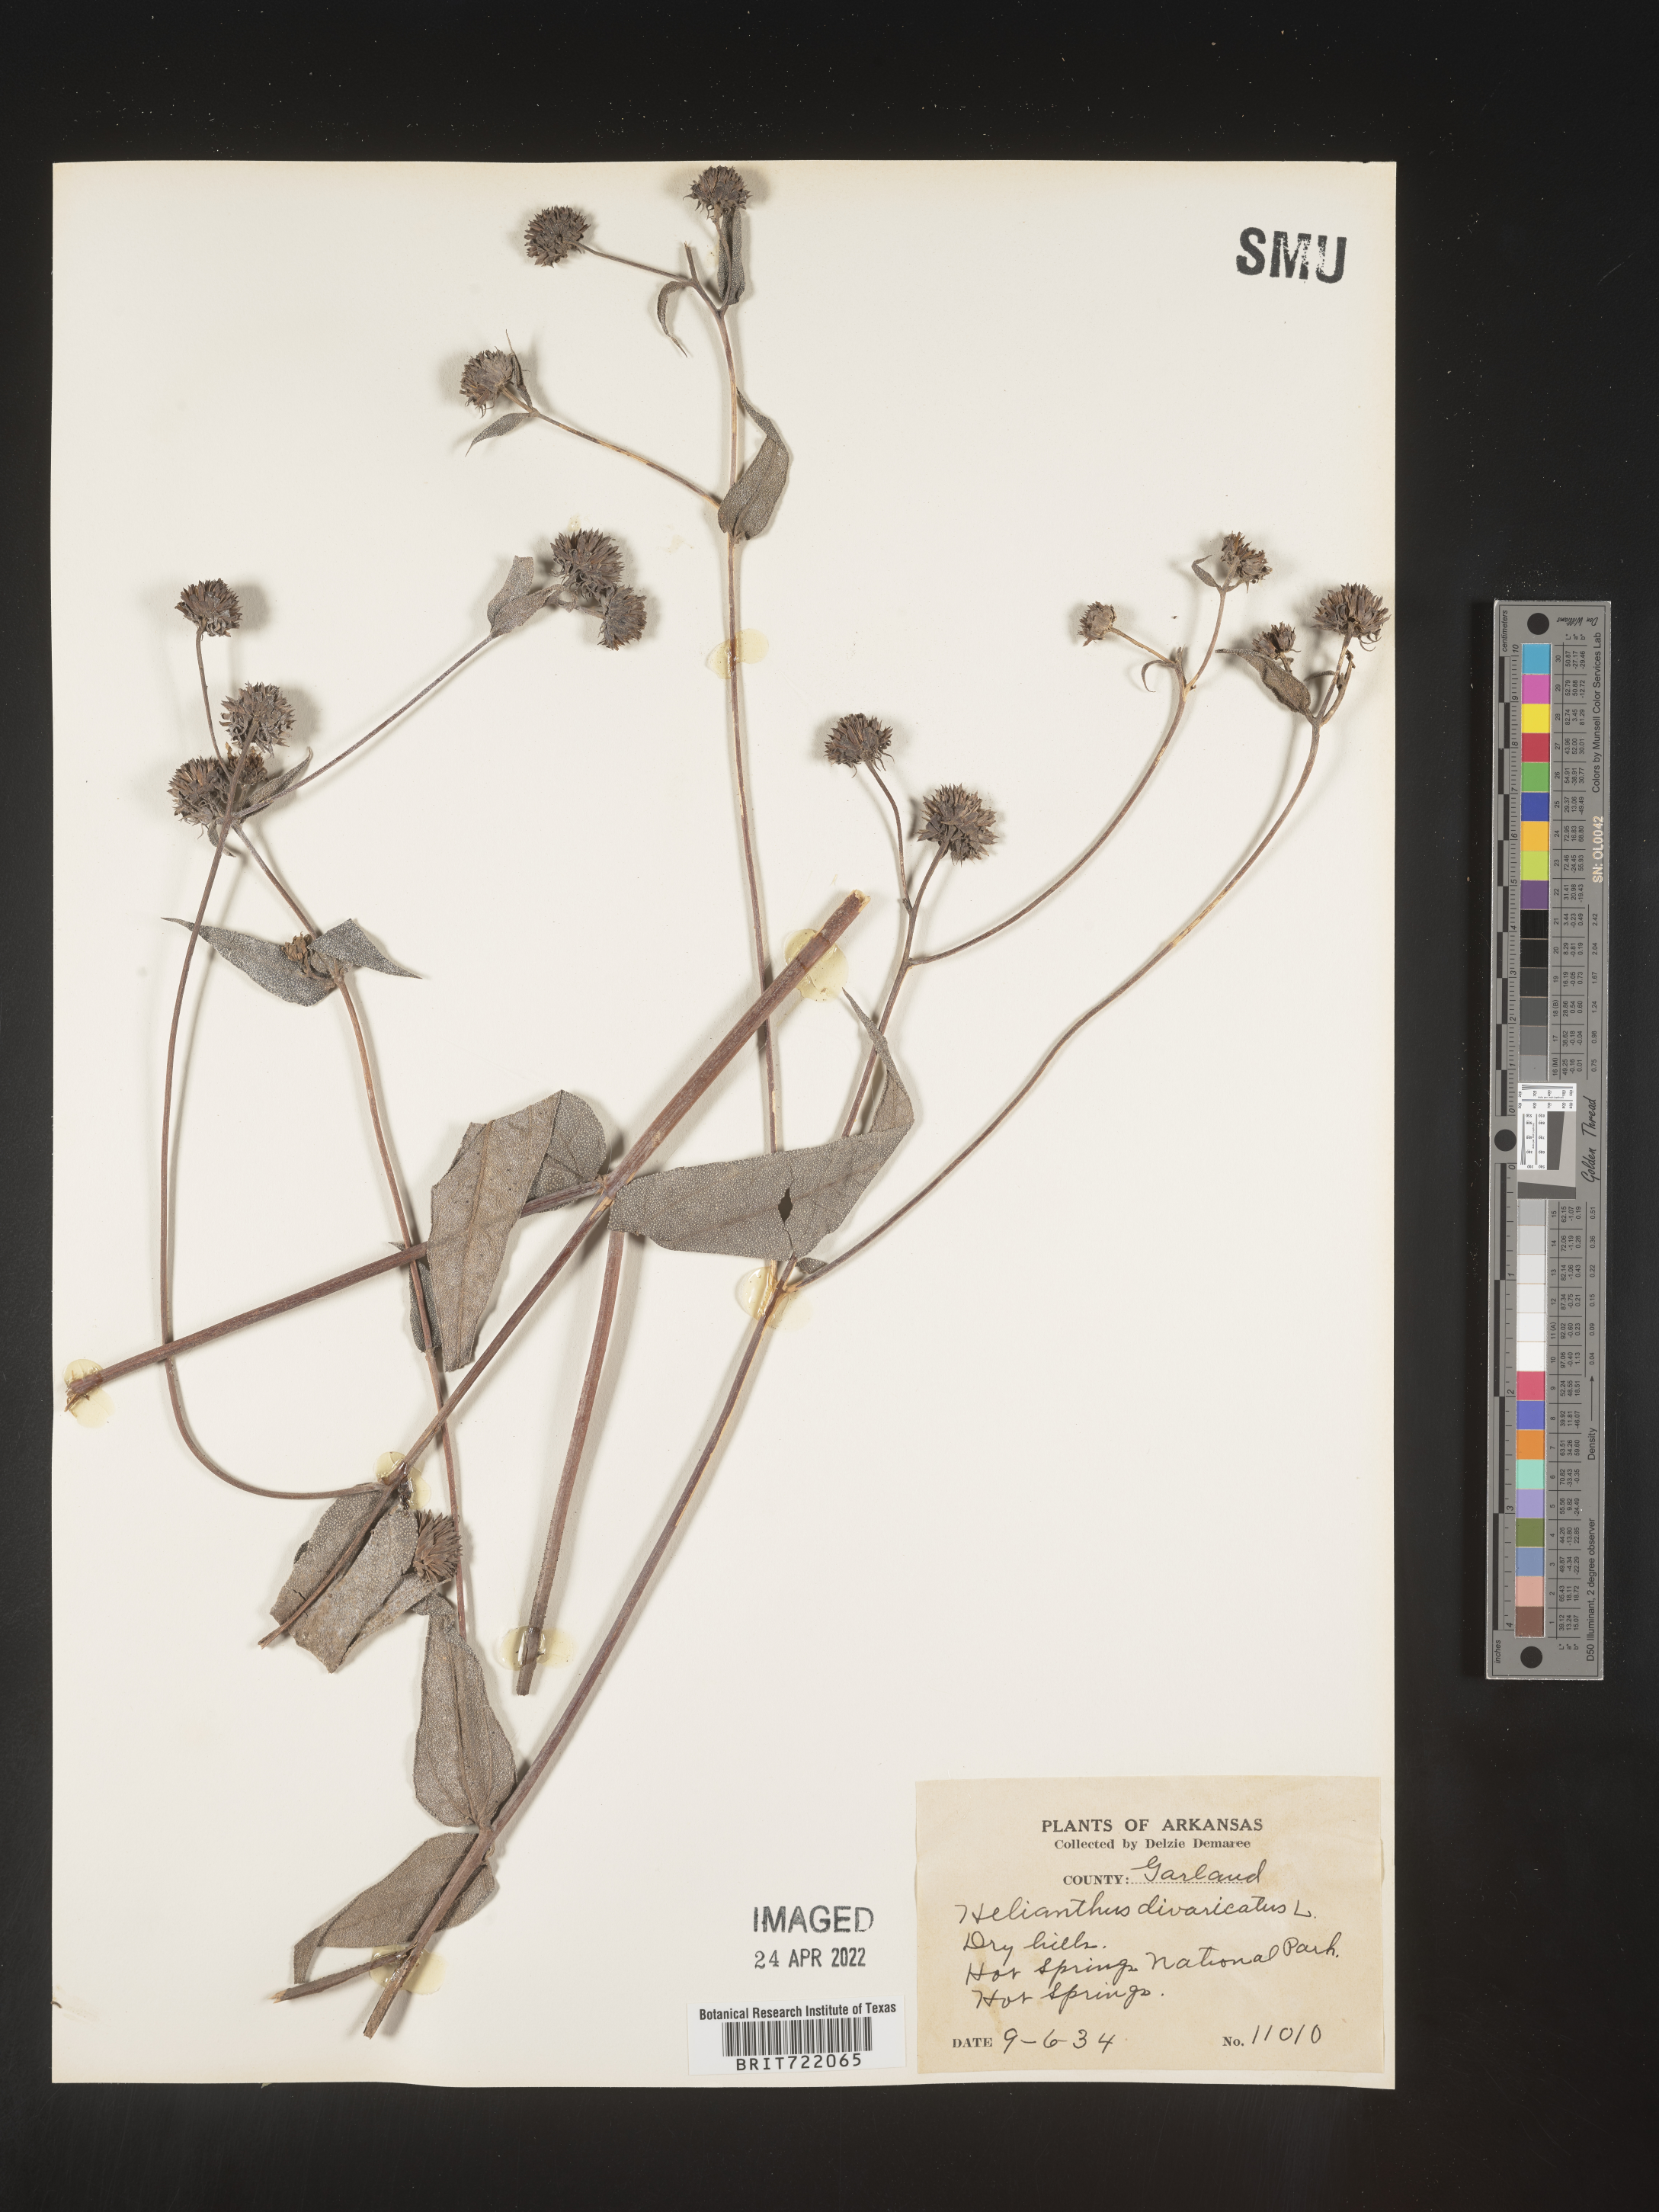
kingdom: Plantae
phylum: Tracheophyta
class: Magnoliopsida
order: Asterales
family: Asteraceae
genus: Helianthus
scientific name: Helianthus divaricatus
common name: Divergent sunflower
